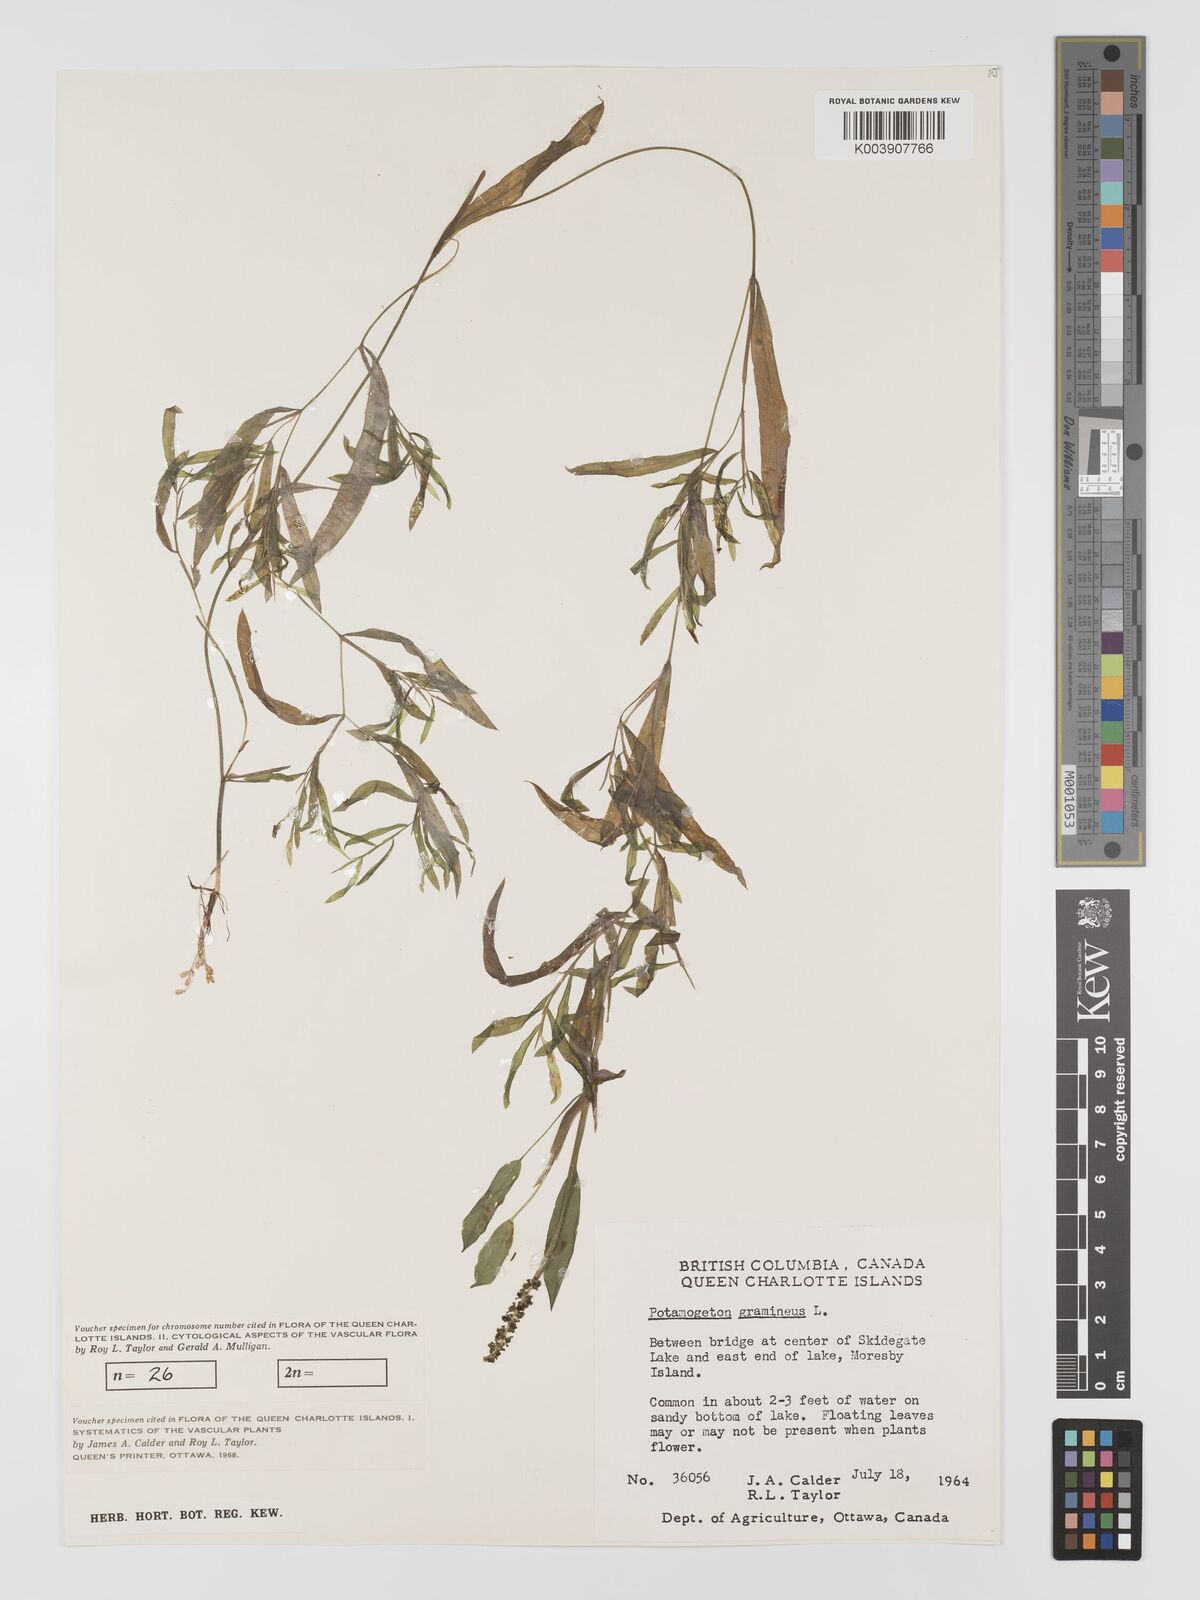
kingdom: Plantae
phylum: Tracheophyta
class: Liliopsida
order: Alismatales
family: Potamogetonaceae
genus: Potamogeton
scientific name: Potamogeton gramineus
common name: Various-leaved pondweed
